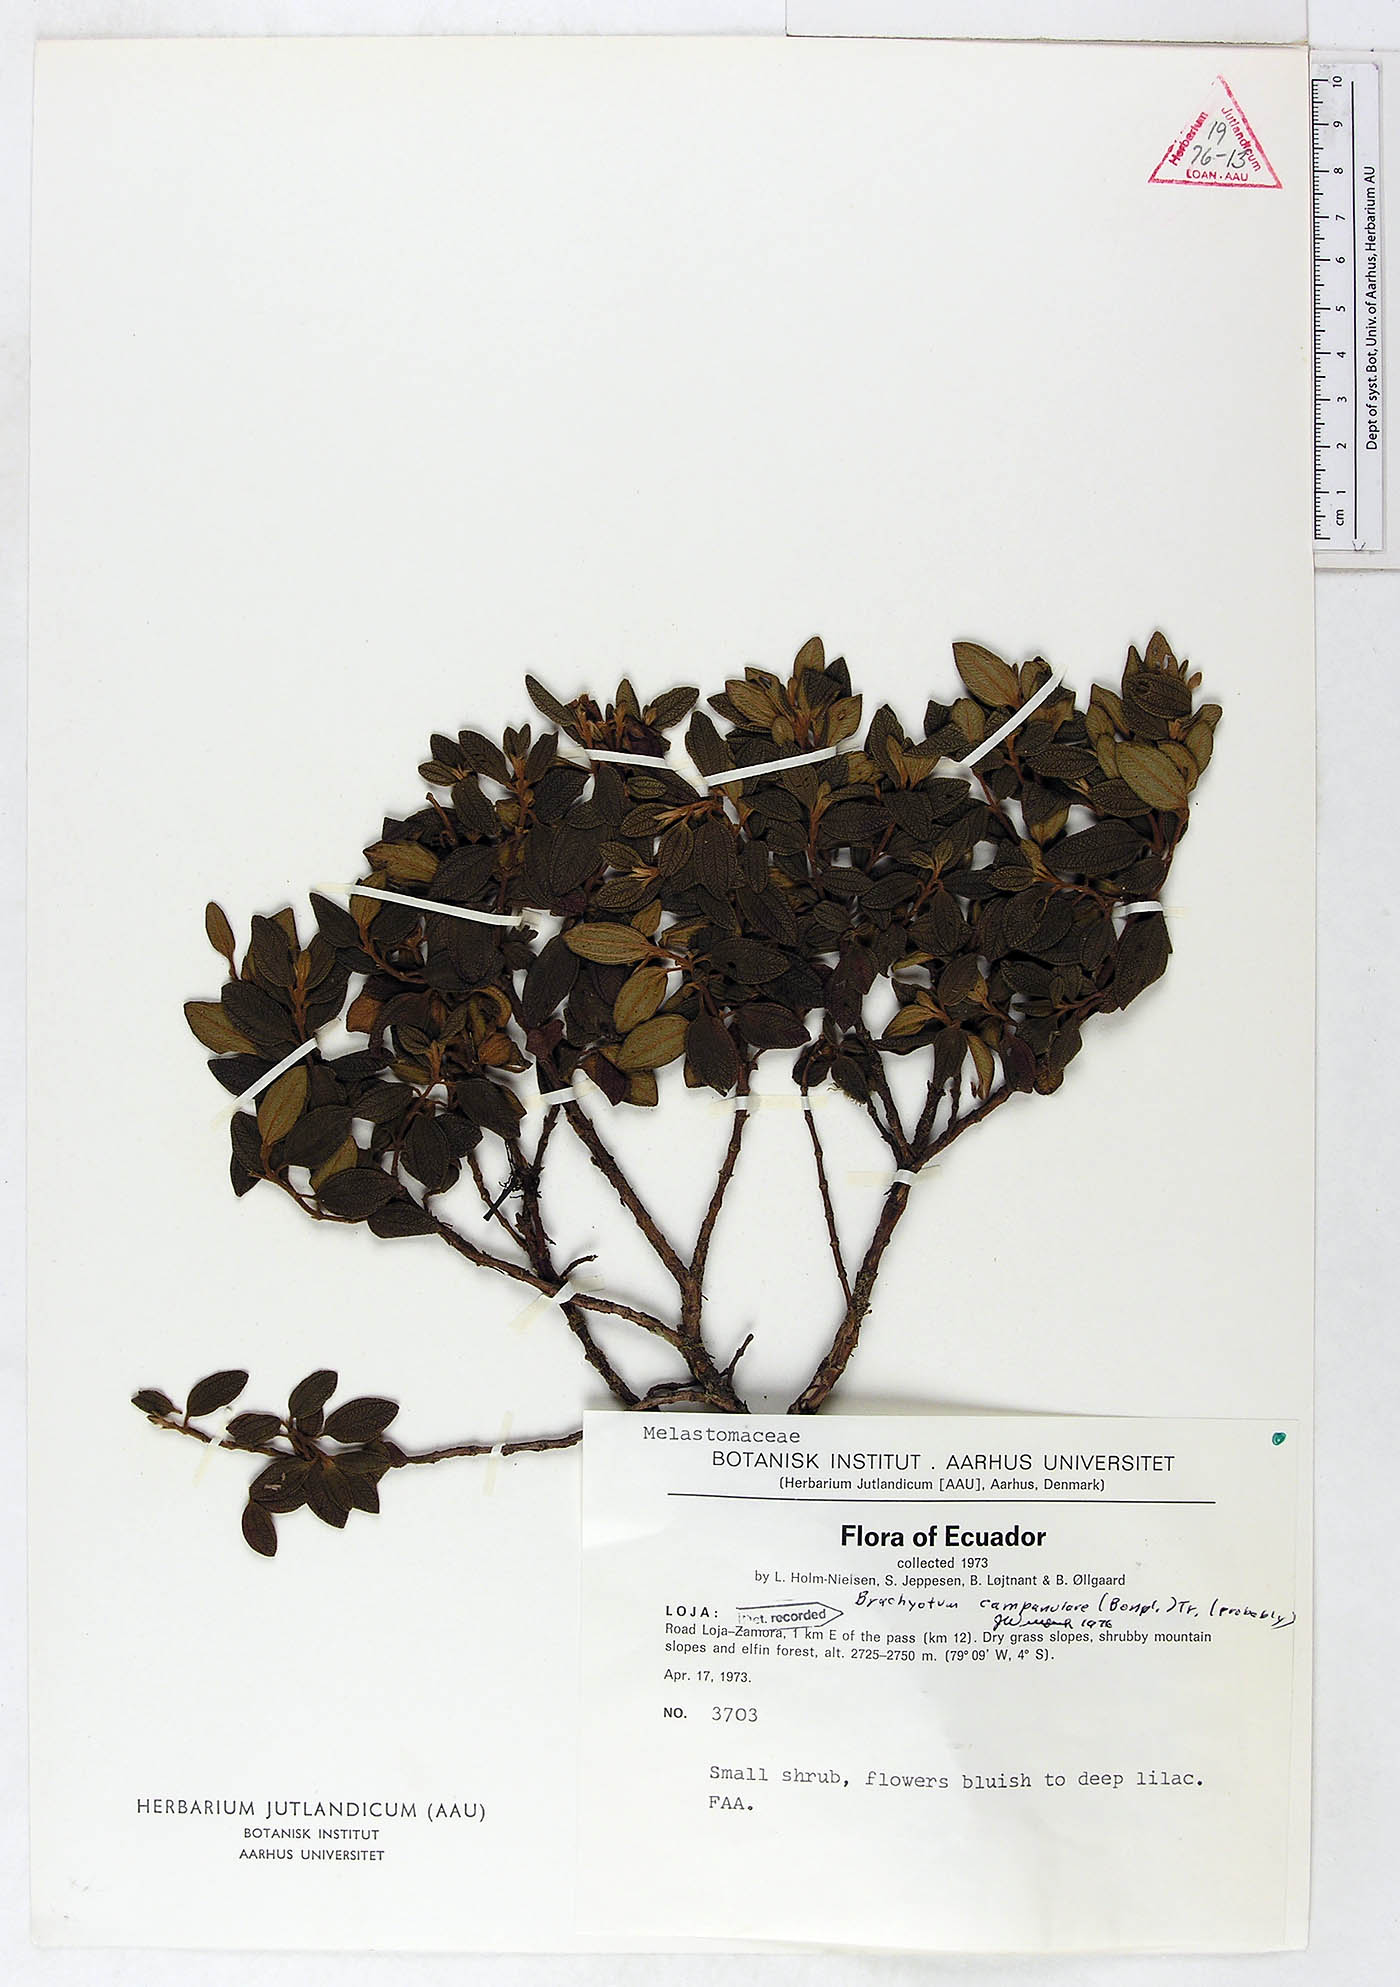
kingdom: Plantae
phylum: Tracheophyta
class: Magnoliopsida
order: Myrtales
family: Melastomataceae
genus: Brachyotum
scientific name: Brachyotum campanulare
